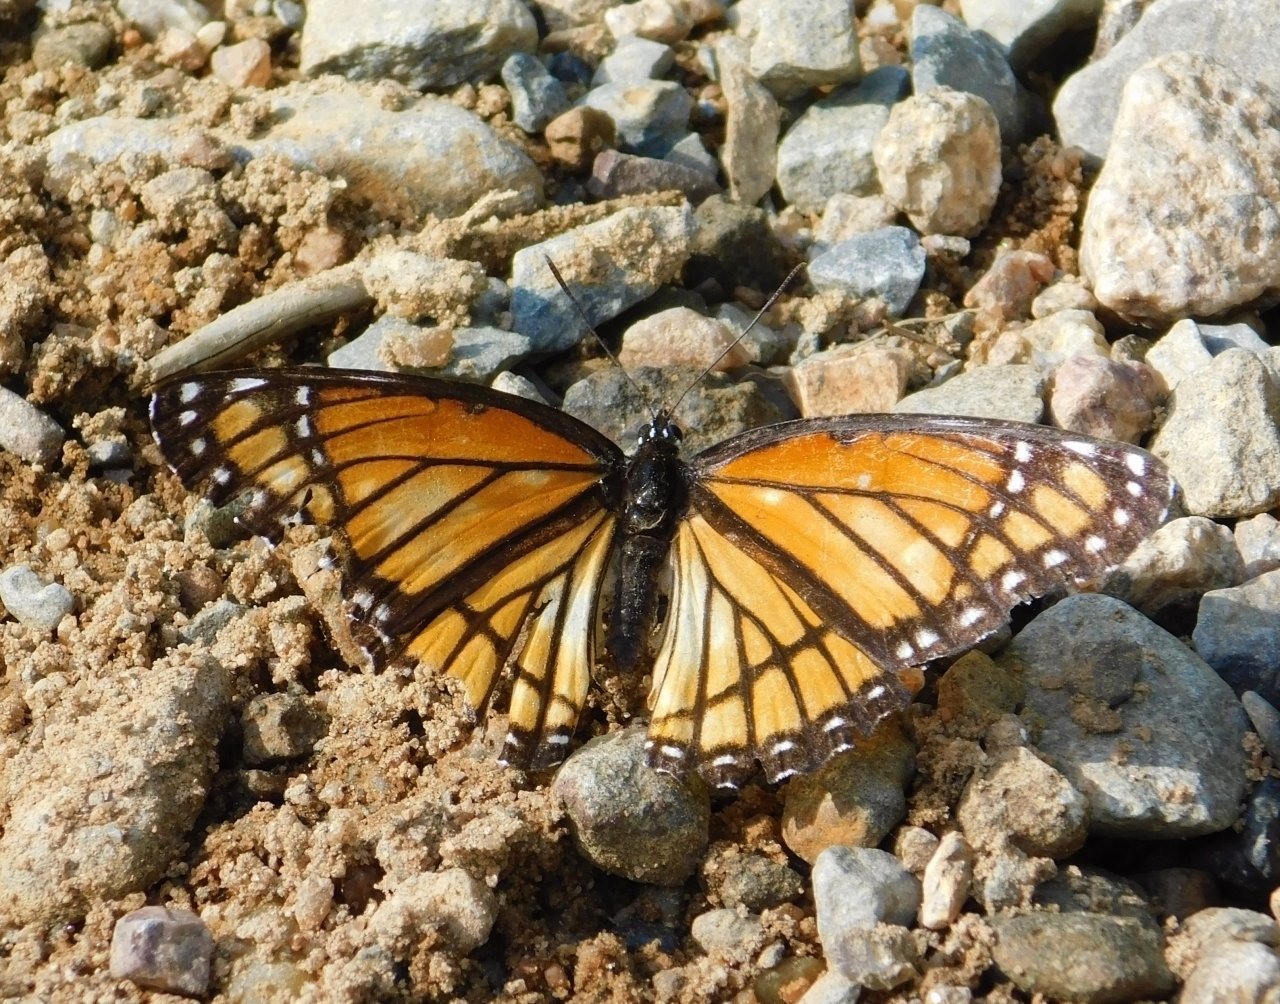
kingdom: Animalia
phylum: Arthropoda
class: Insecta
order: Lepidoptera
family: Nymphalidae
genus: Limenitis
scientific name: Limenitis archippus
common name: Viceroy
